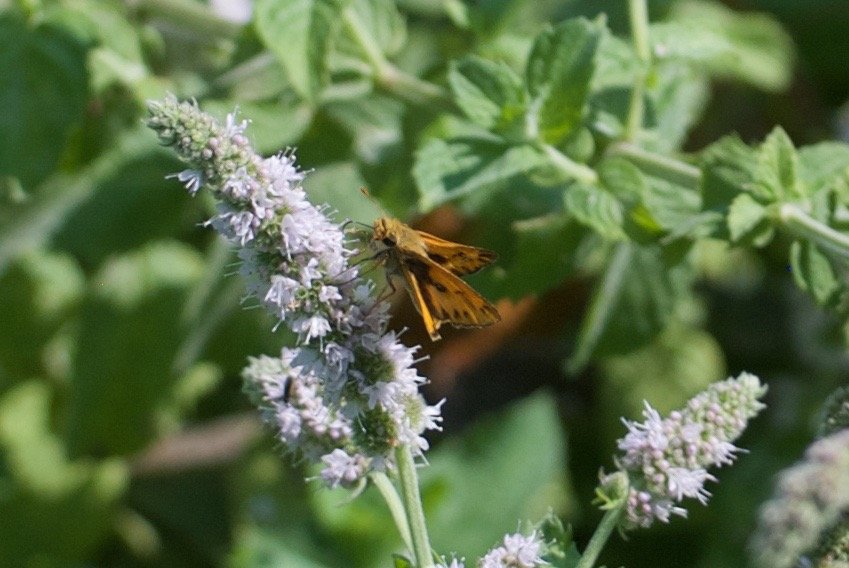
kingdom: Animalia
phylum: Arthropoda
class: Insecta
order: Lepidoptera
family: Hesperiidae
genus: Hylephila
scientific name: Hylephila phyleus
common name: Fiery Skipper
